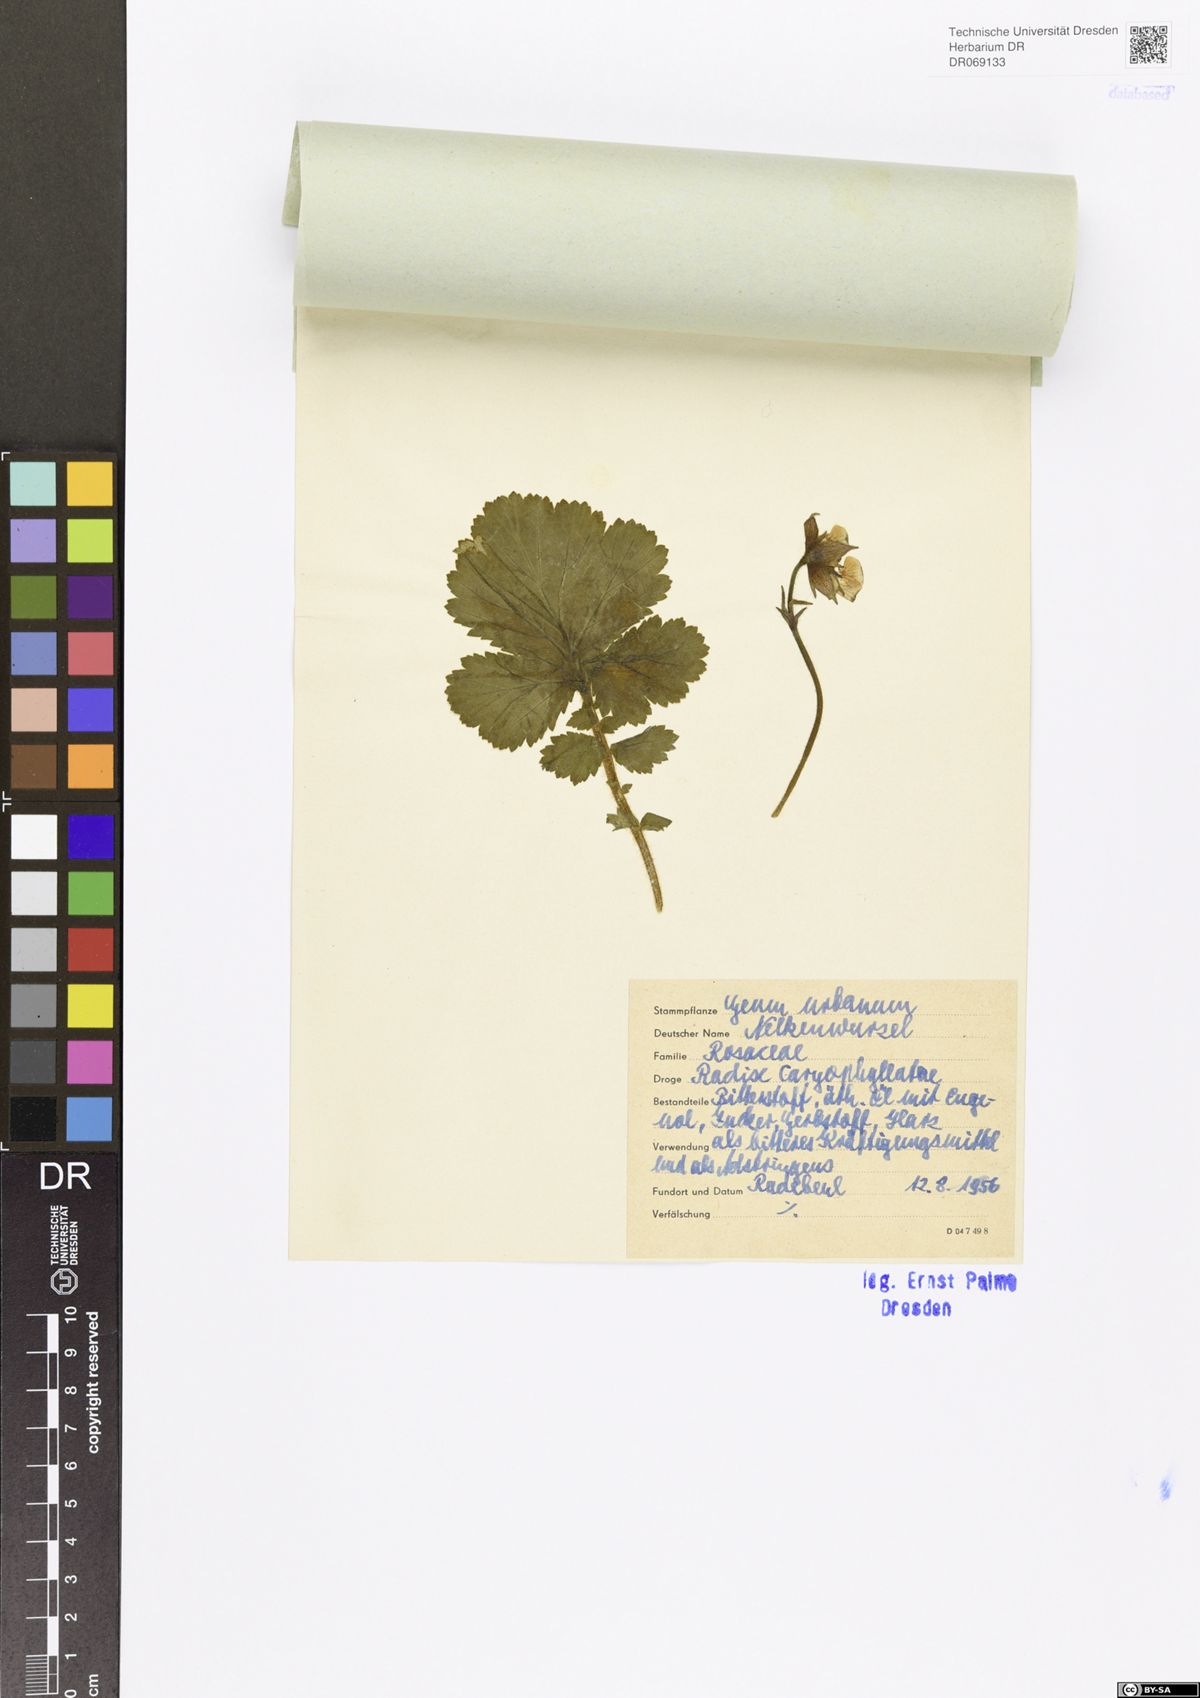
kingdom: Plantae
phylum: Tracheophyta
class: Magnoliopsida
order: Rosales
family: Rosaceae
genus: Geum
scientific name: Geum urbanum
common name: Wood avens
